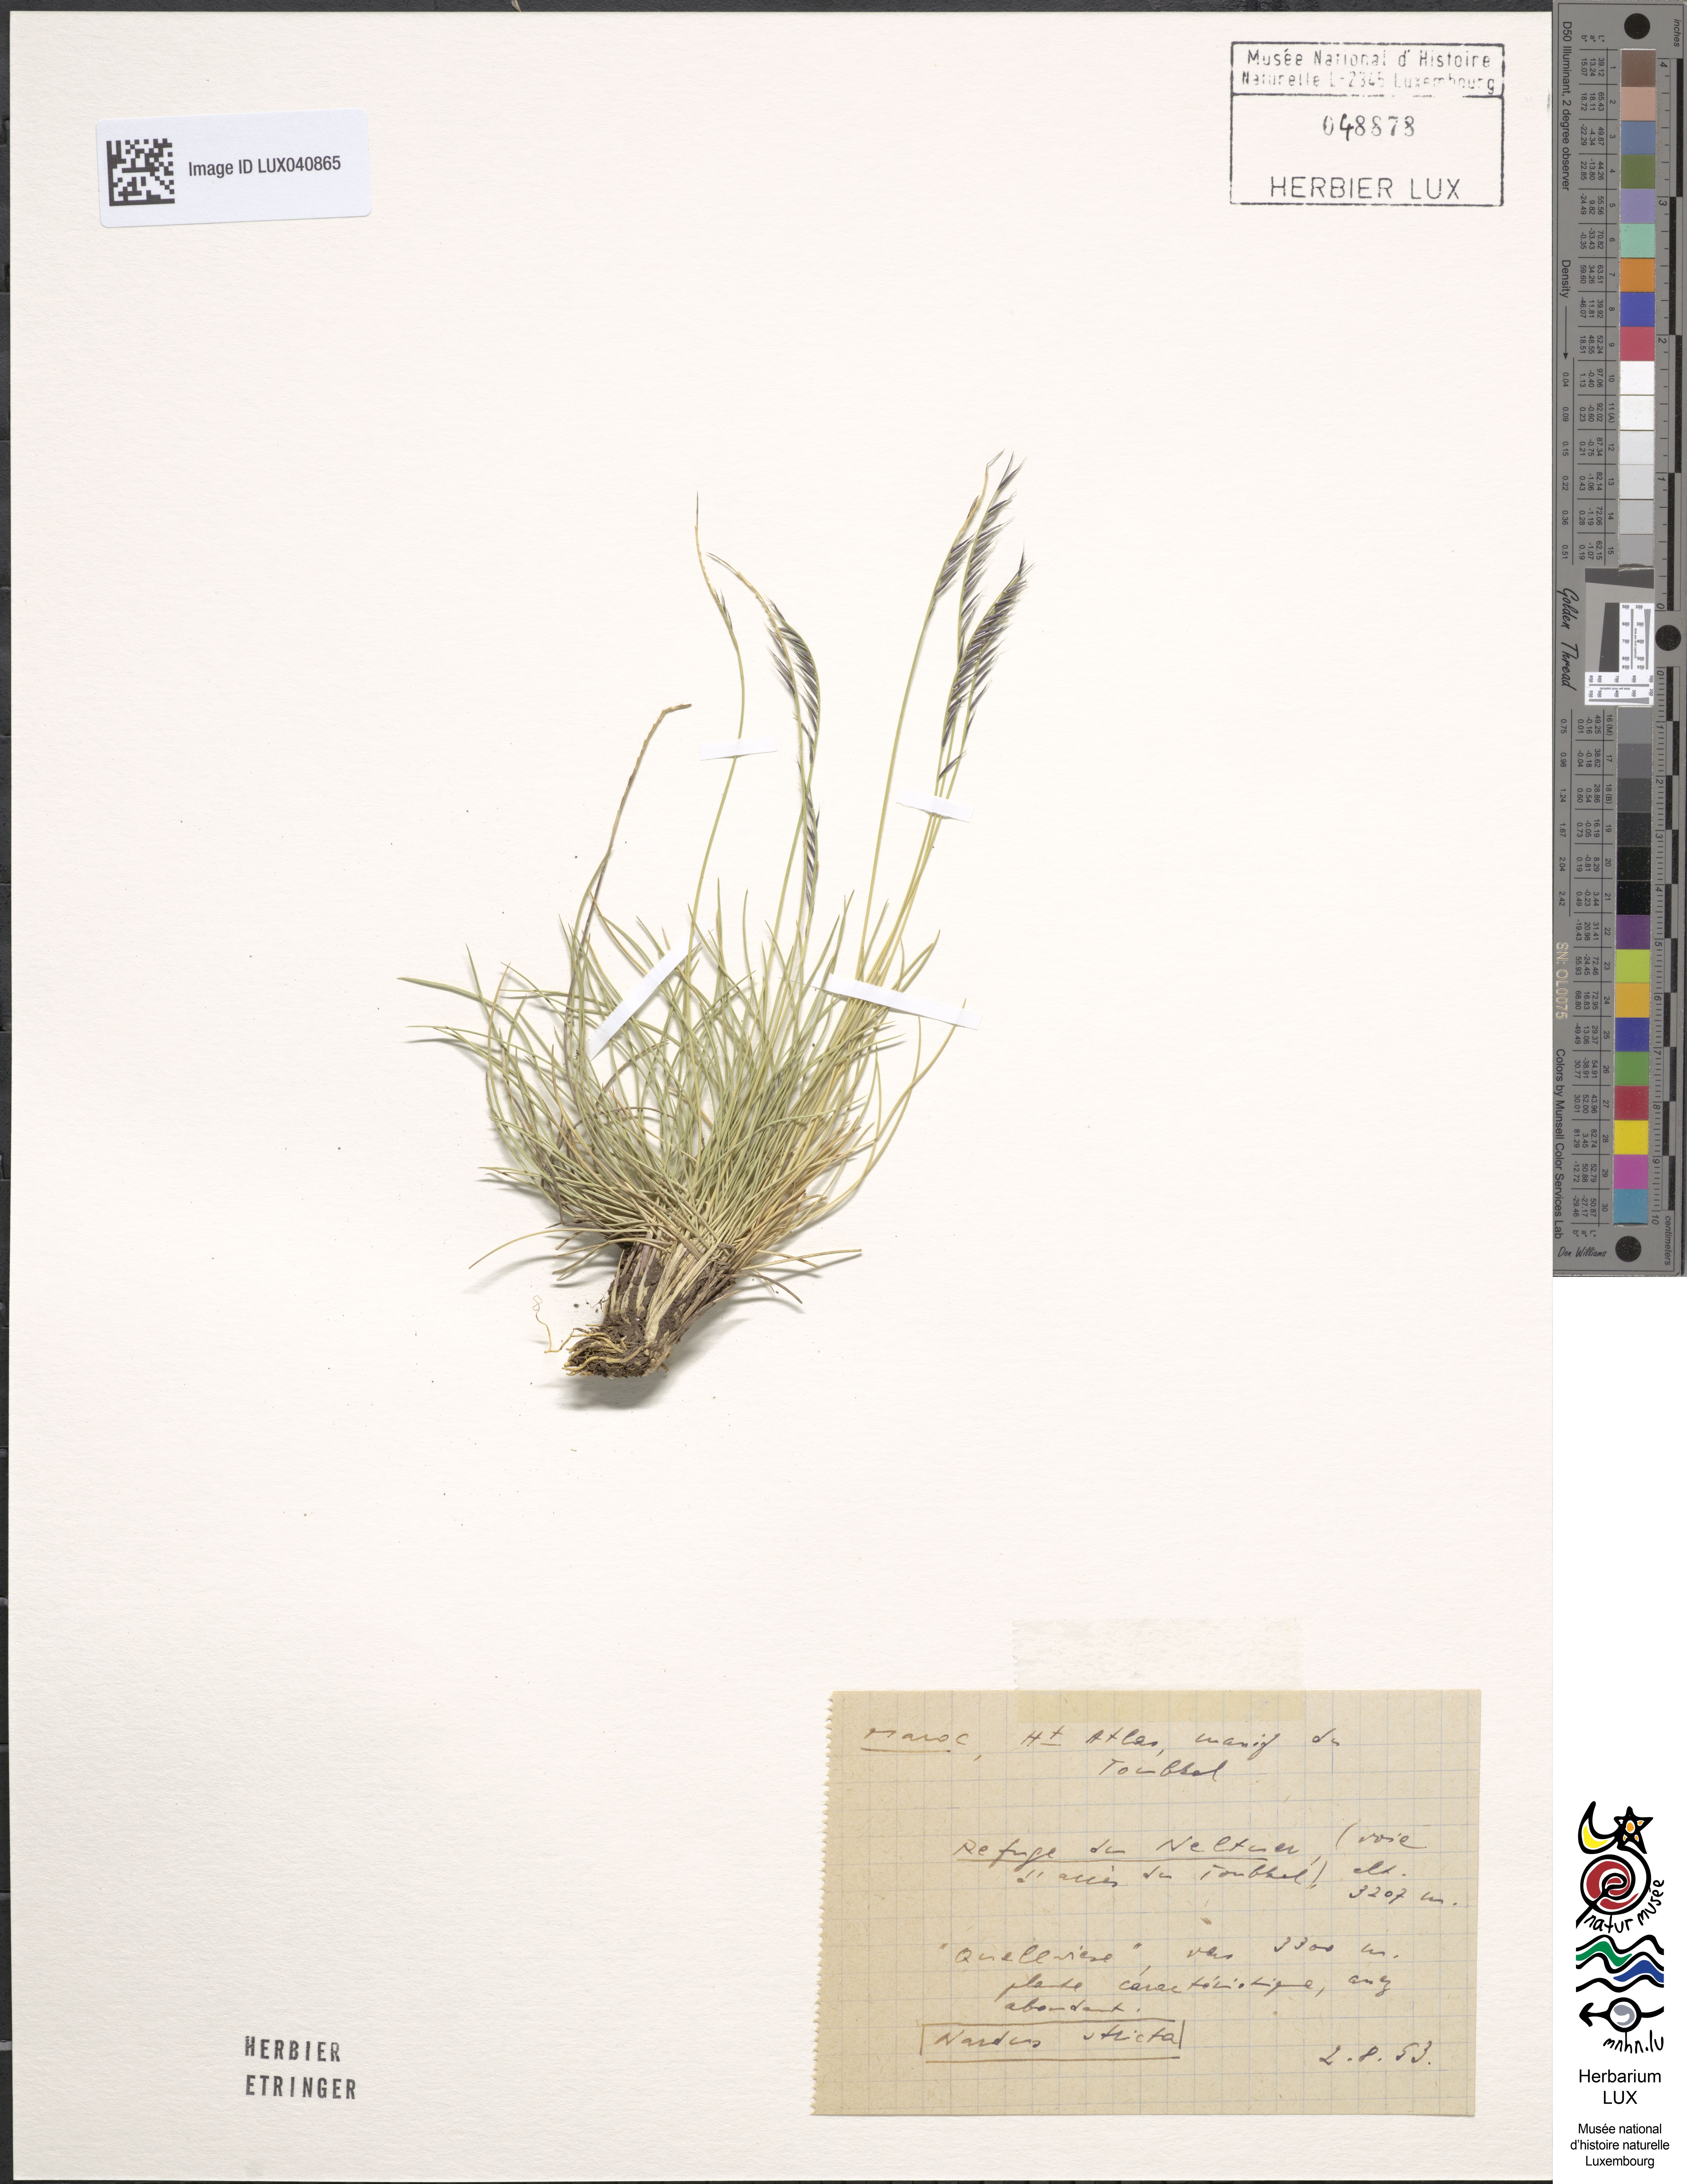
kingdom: Plantae
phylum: Tracheophyta
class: Liliopsida
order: Poales
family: Poaceae
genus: Nardus
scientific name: Nardus stricta
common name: Mat-grass
